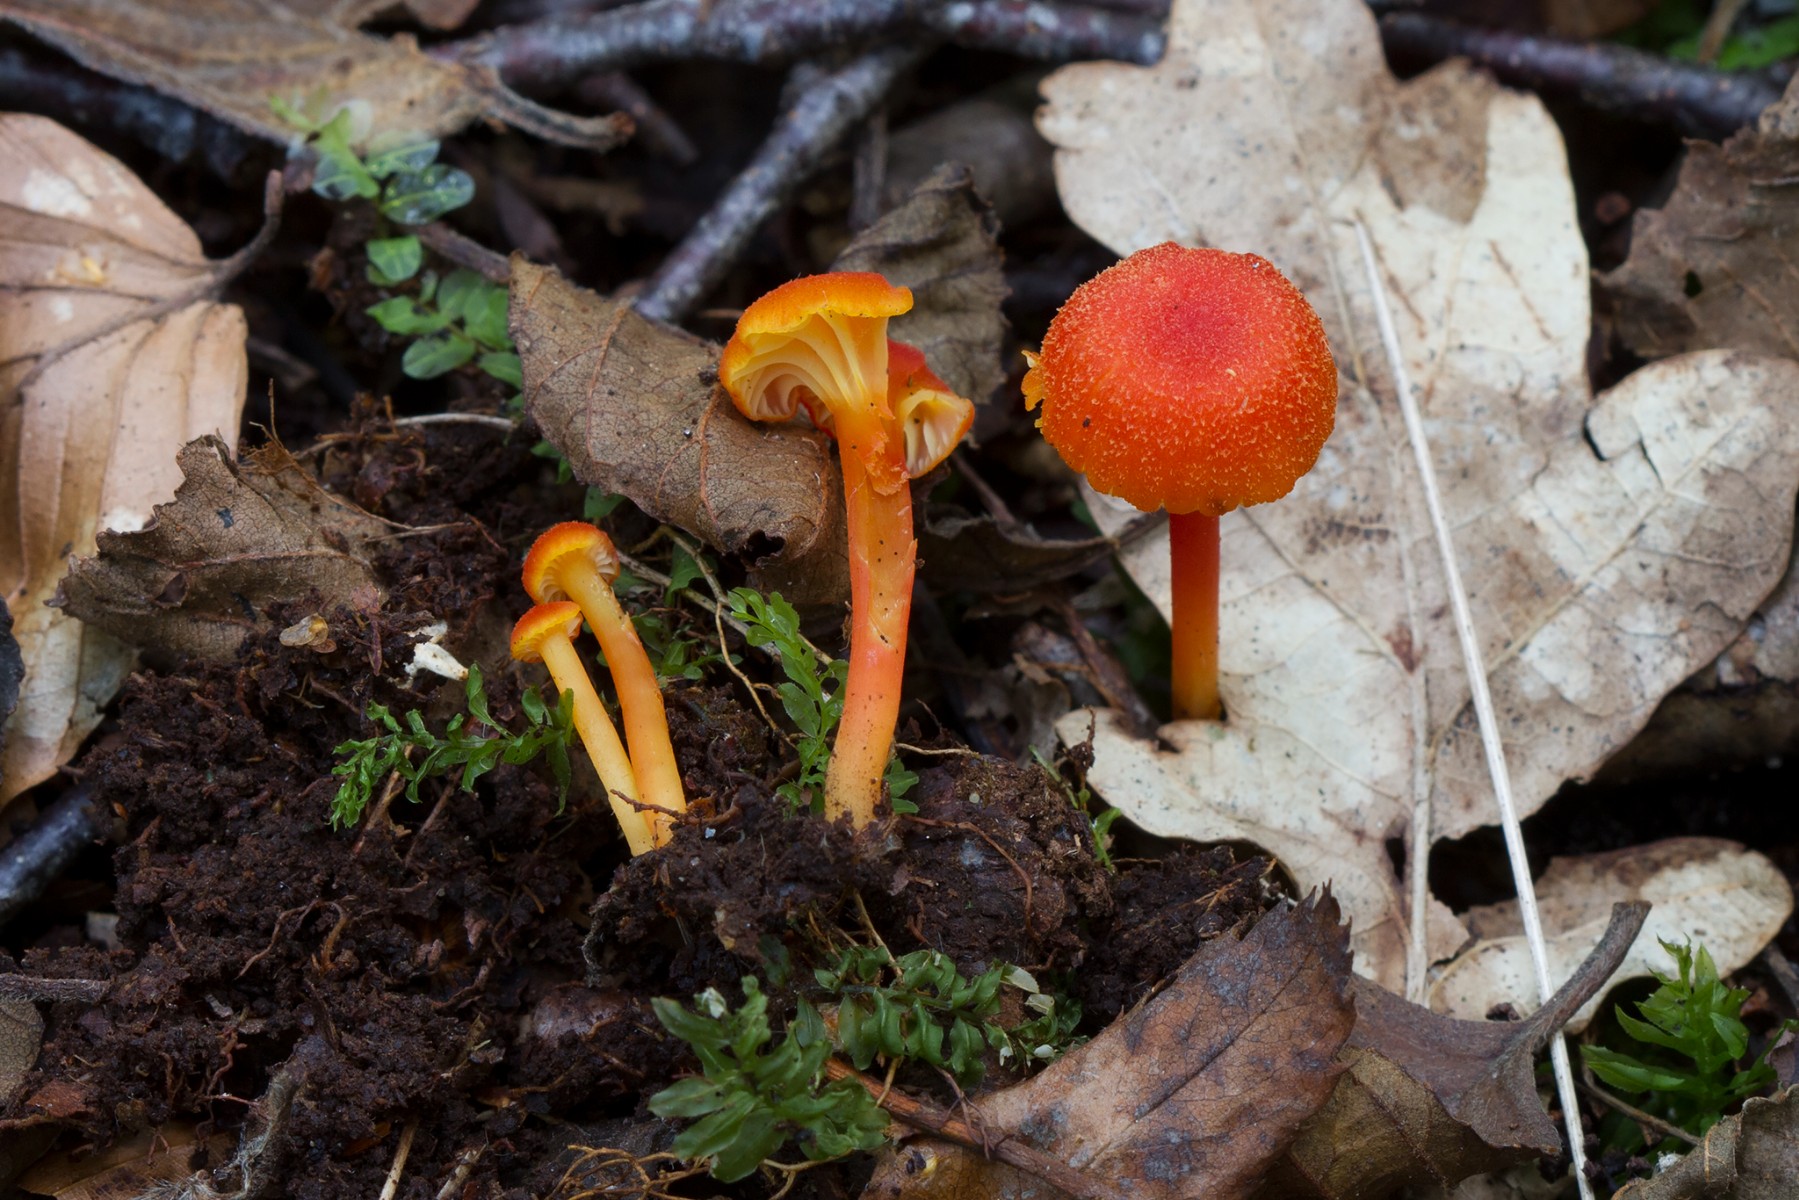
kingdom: Fungi
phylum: Basidiomycota
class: Agaricomycetes
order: Agaricales
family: Hygrophoraceae
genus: Hygrocybe
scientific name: Hygrocybe cantharellus
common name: kantarel-vokshat
